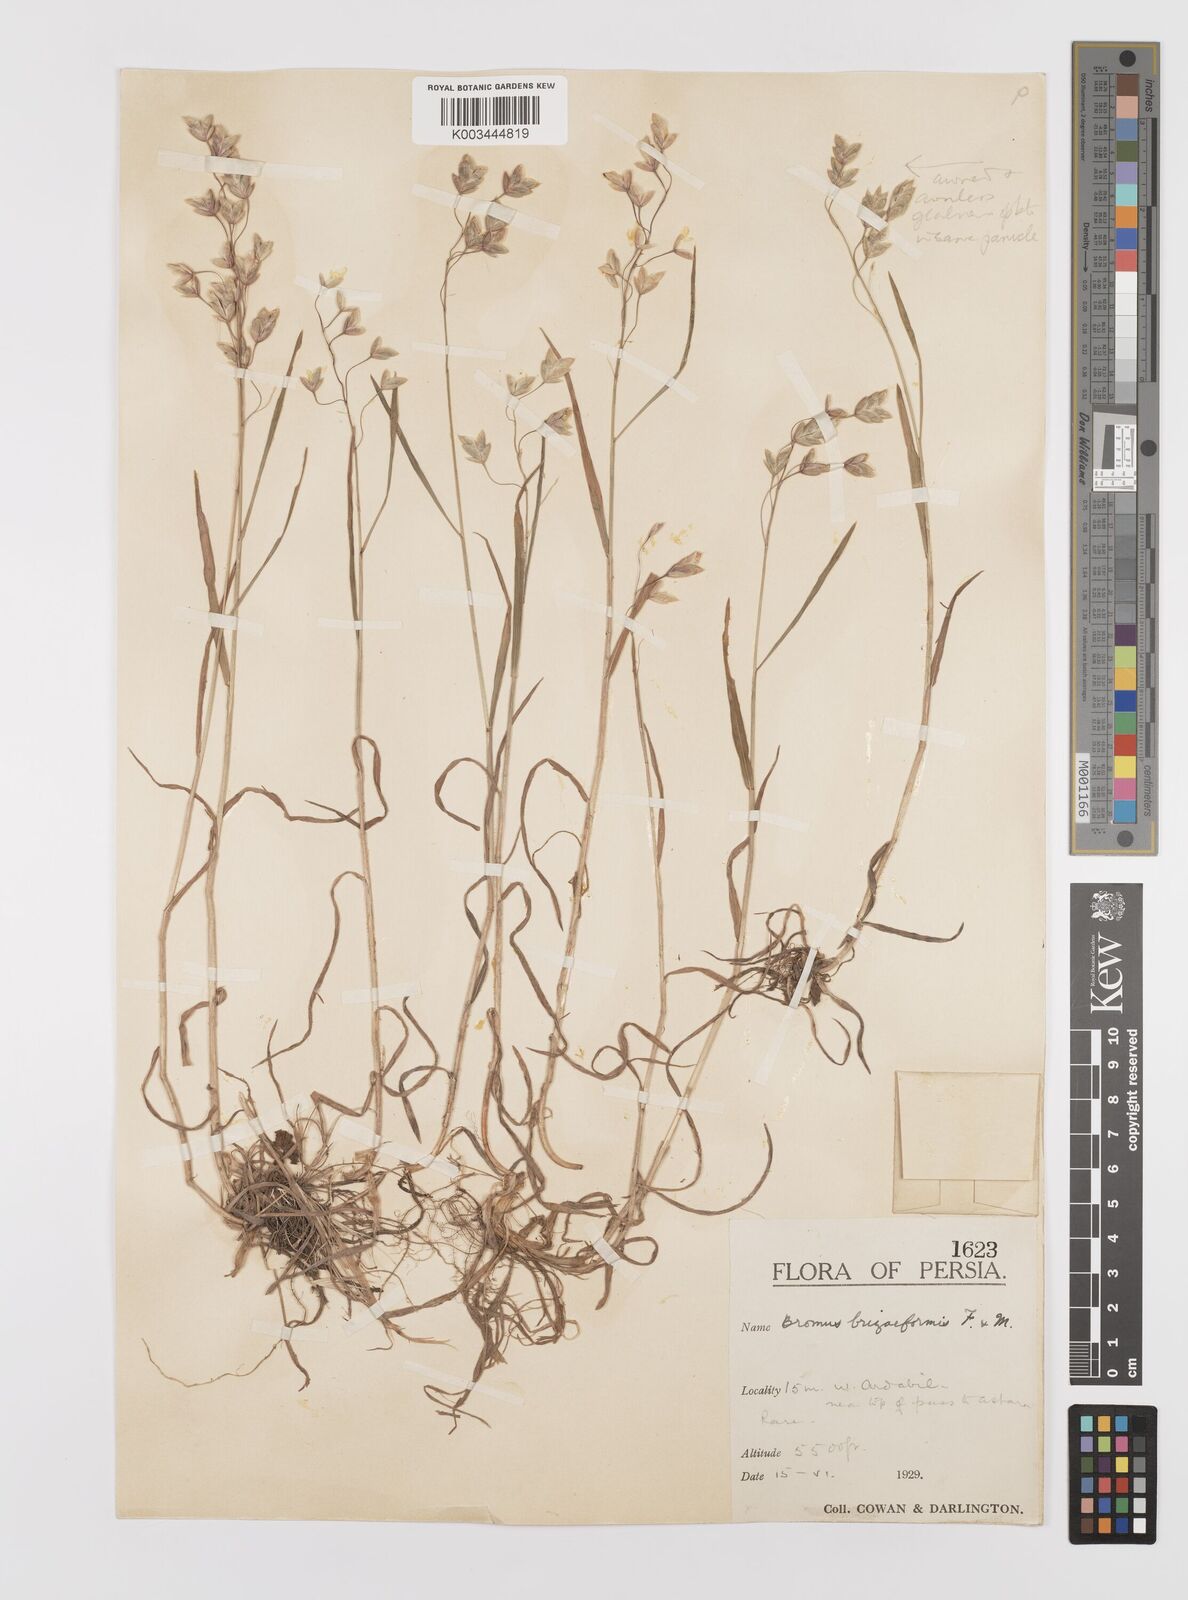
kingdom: Plantae
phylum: Tracheophyta
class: Liliopsida
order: Poales
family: Poaceae
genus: Bromus
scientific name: Bromus briziformis
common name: Rattlesnake brome
